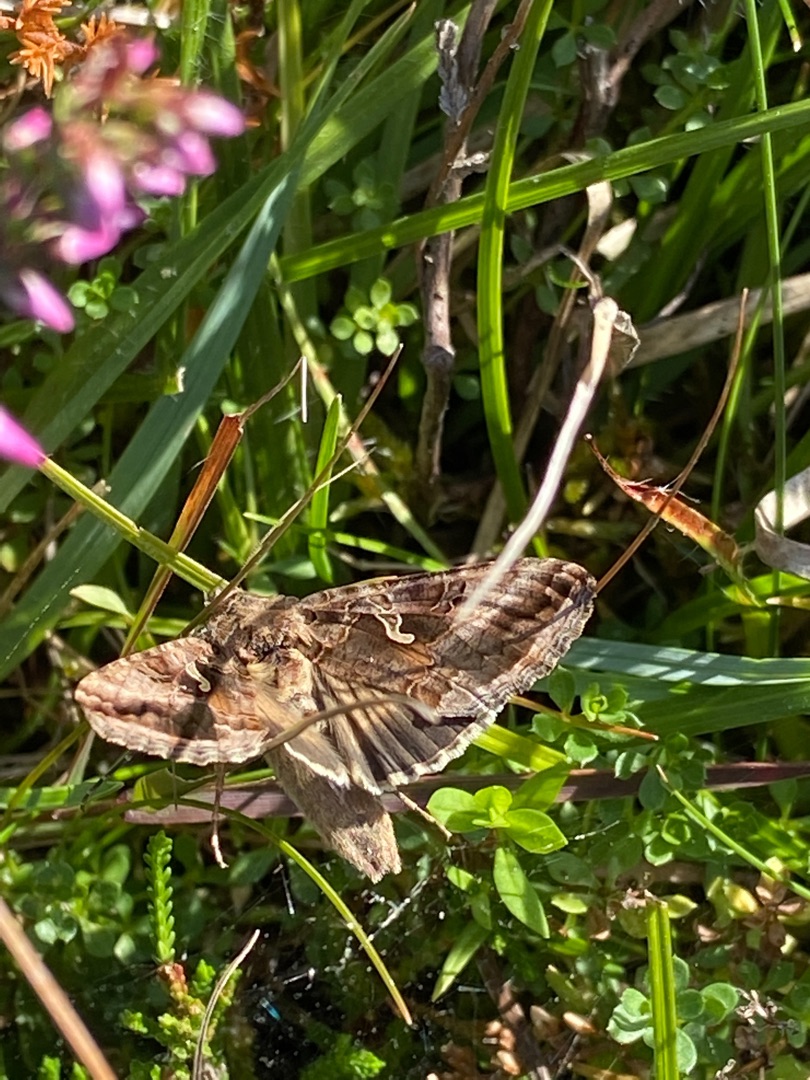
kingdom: Animalia
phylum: Arthropoda
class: Insecta
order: Lepidoptera
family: Noctuidae
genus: Autographa
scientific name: Autographa gamma
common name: Gammaugle
